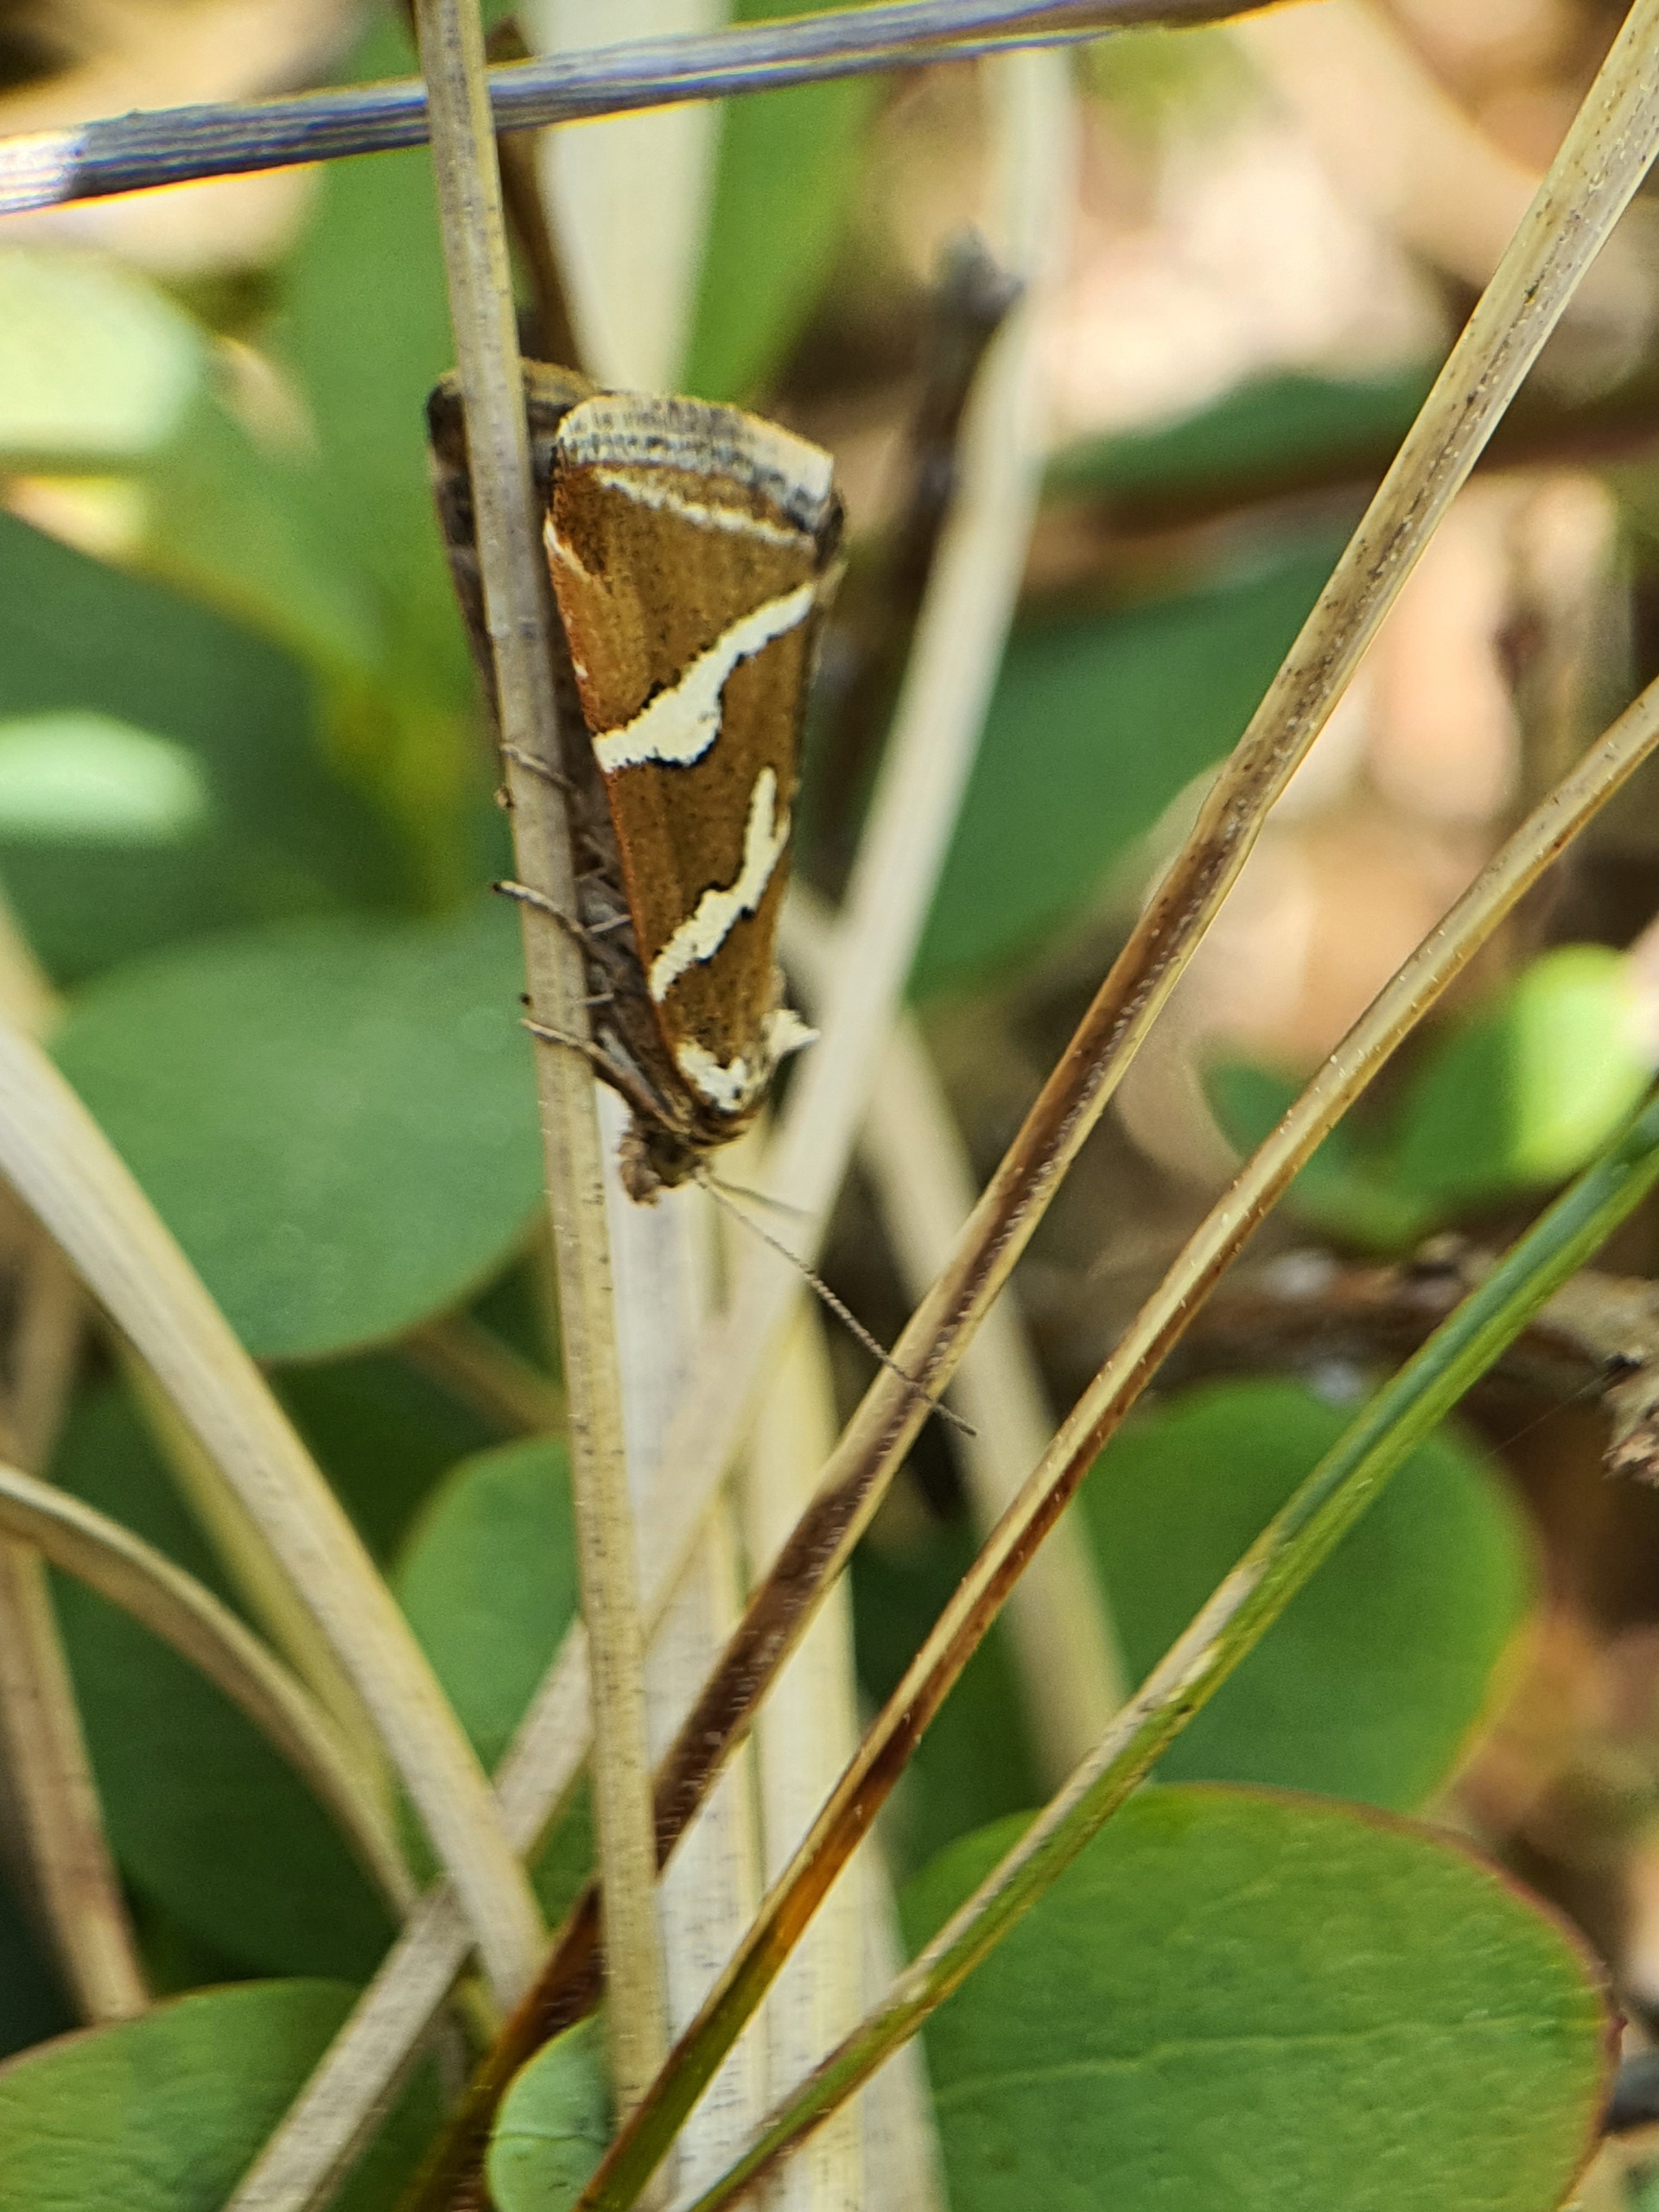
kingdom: Animalia
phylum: Arthropoda
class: Insecta
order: Lepidoptera
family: Noctuidae
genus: Deltote
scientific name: Deltote bankiana
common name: Tvebånd-dagugle
